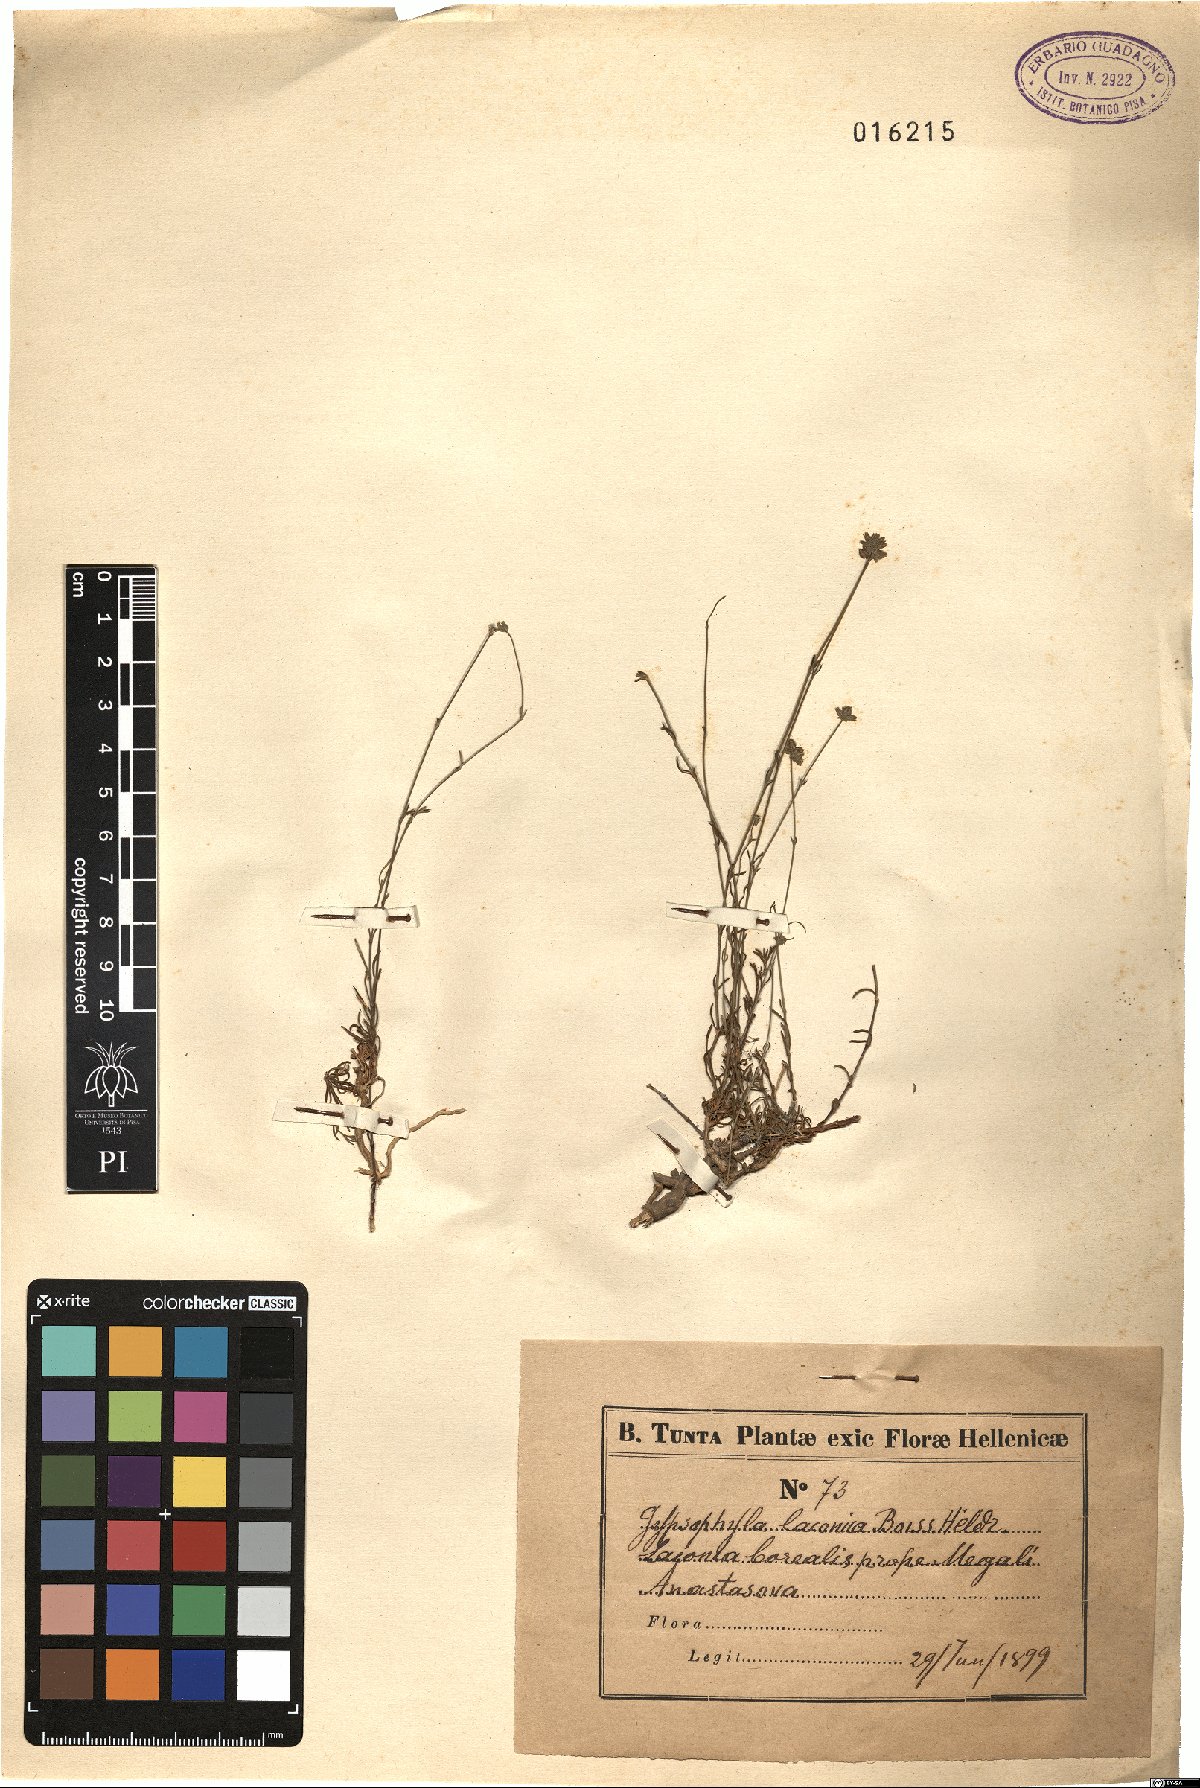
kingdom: Plantae
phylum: Tracheophyta
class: Magnoliopsida
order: Caryophyllales
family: Caryophyllaceae
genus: Graecobolanthus
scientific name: Graecobolanthus laconicus
